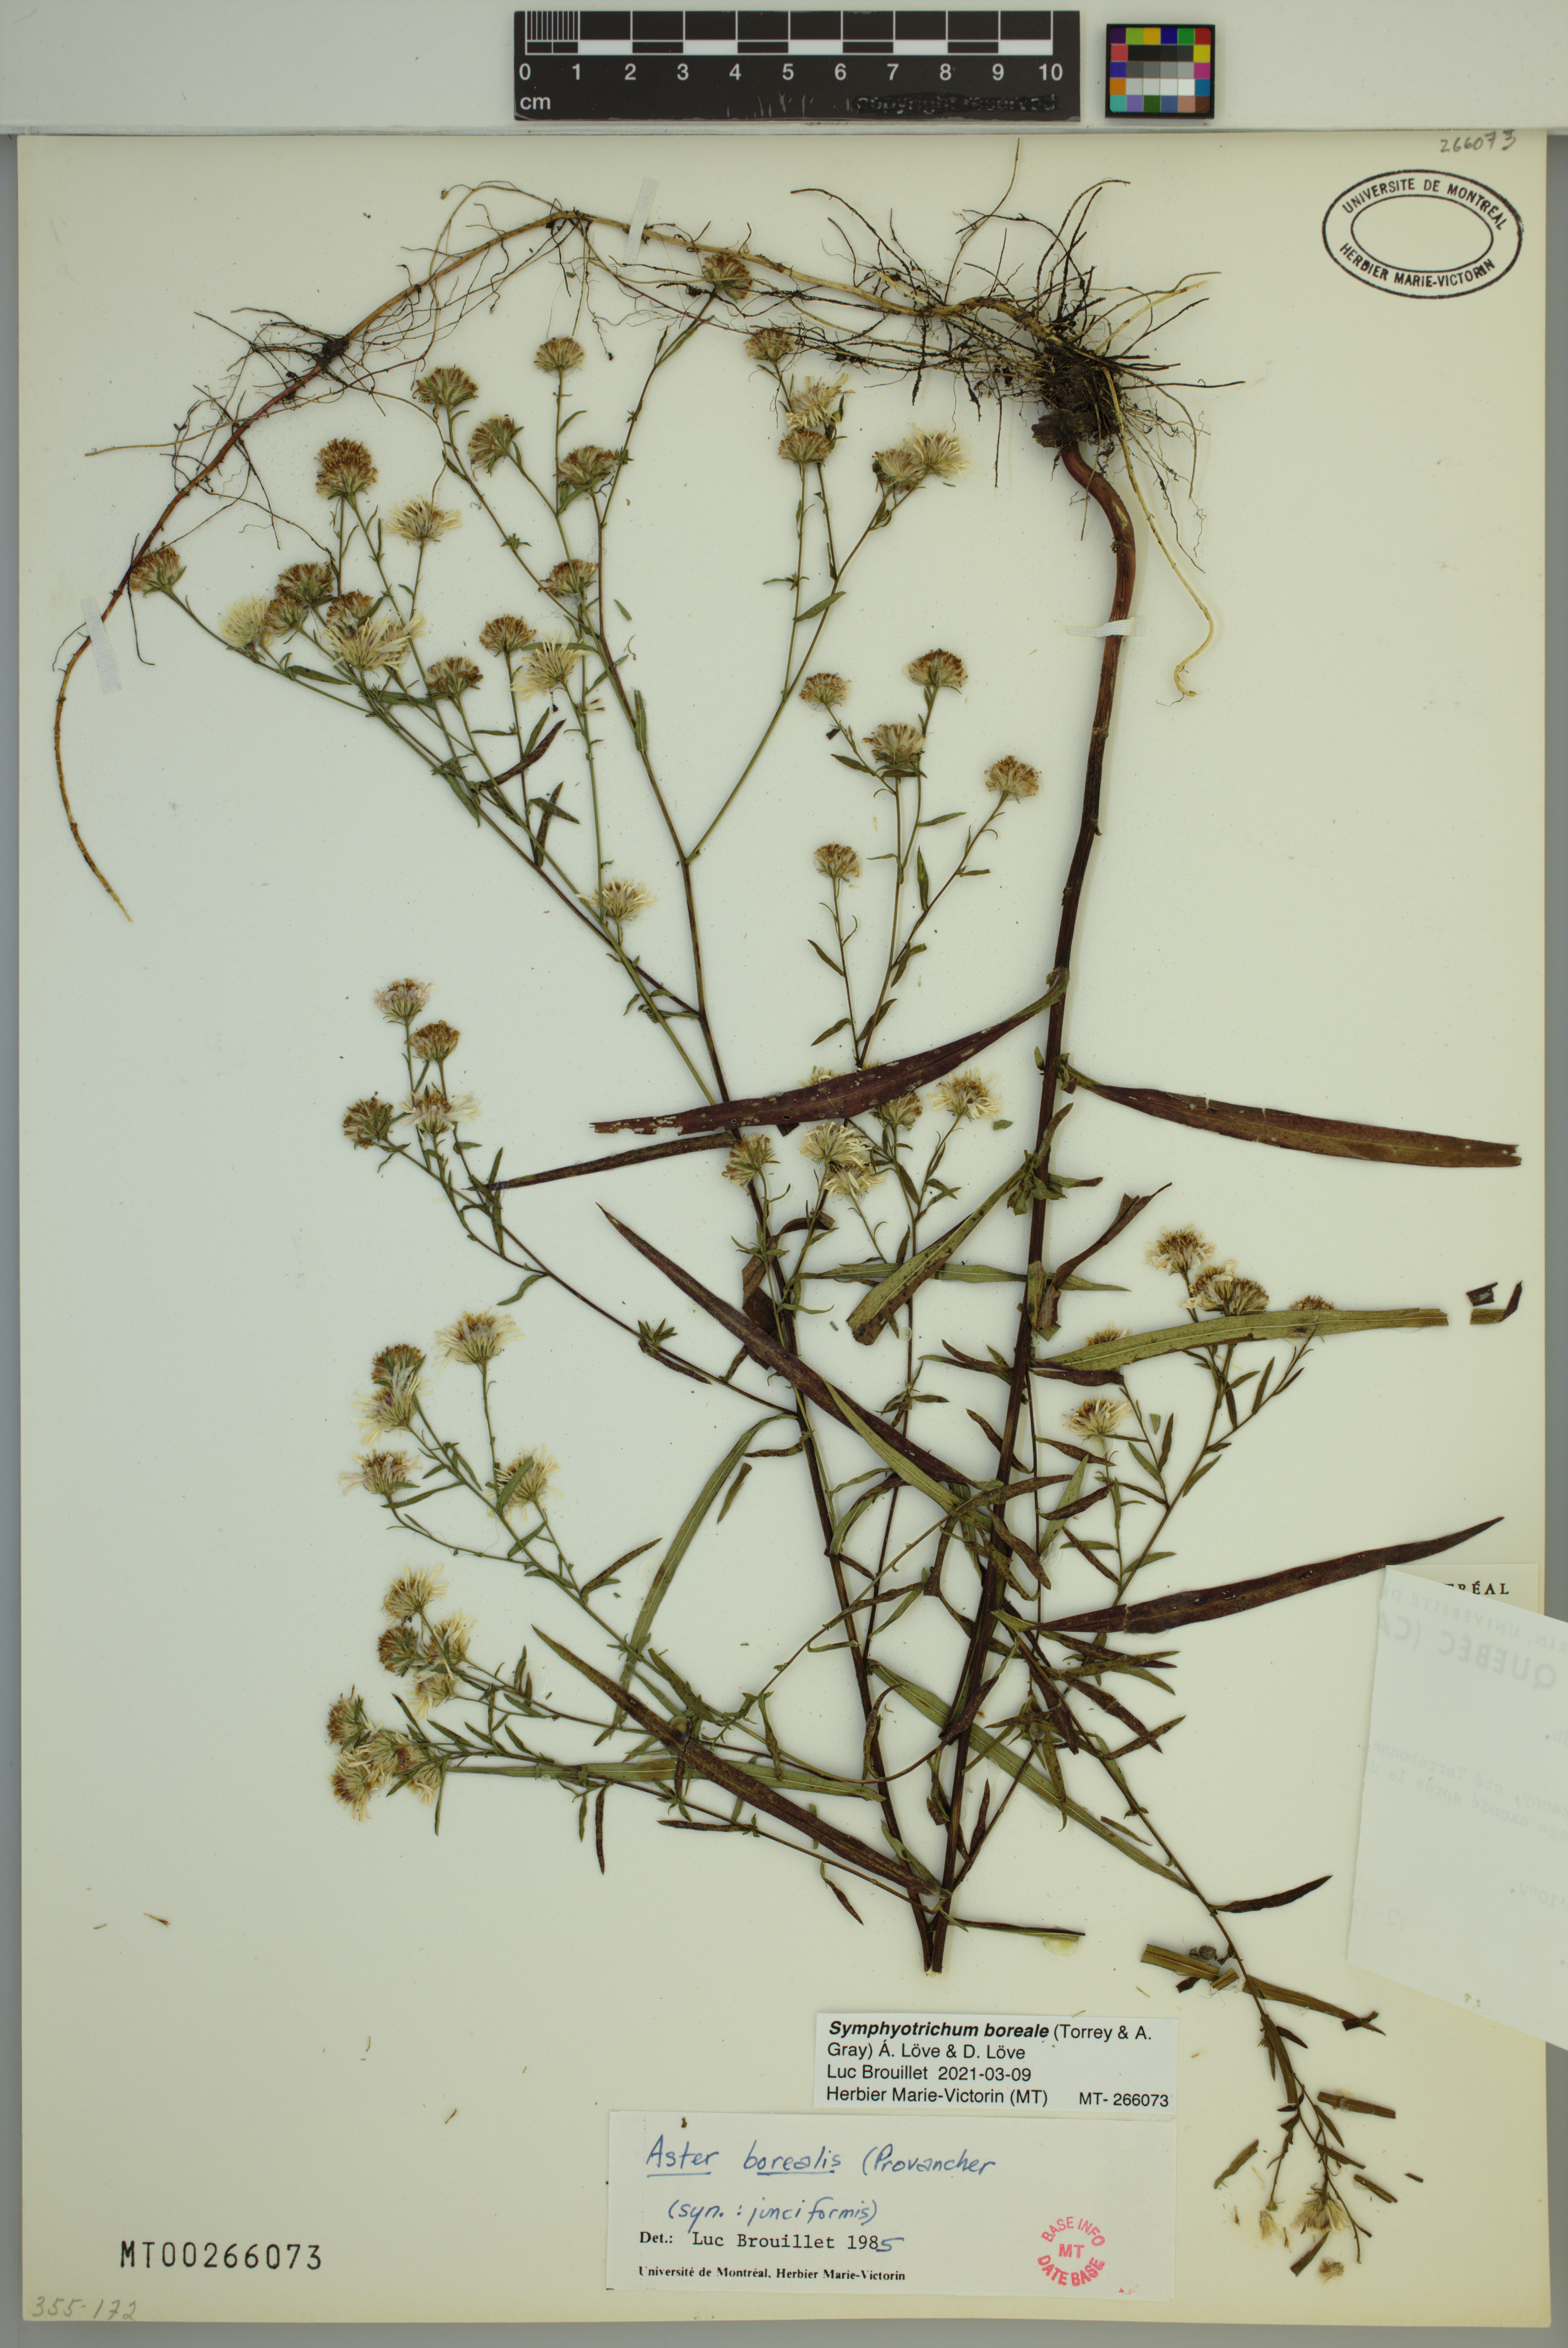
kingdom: Plantae
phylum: Tracheophyta
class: Magnoliopsida
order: Asterales
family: Asteraceae
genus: Symphyotrichum
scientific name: Symphyotrichum boreale
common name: Northern bog aster
